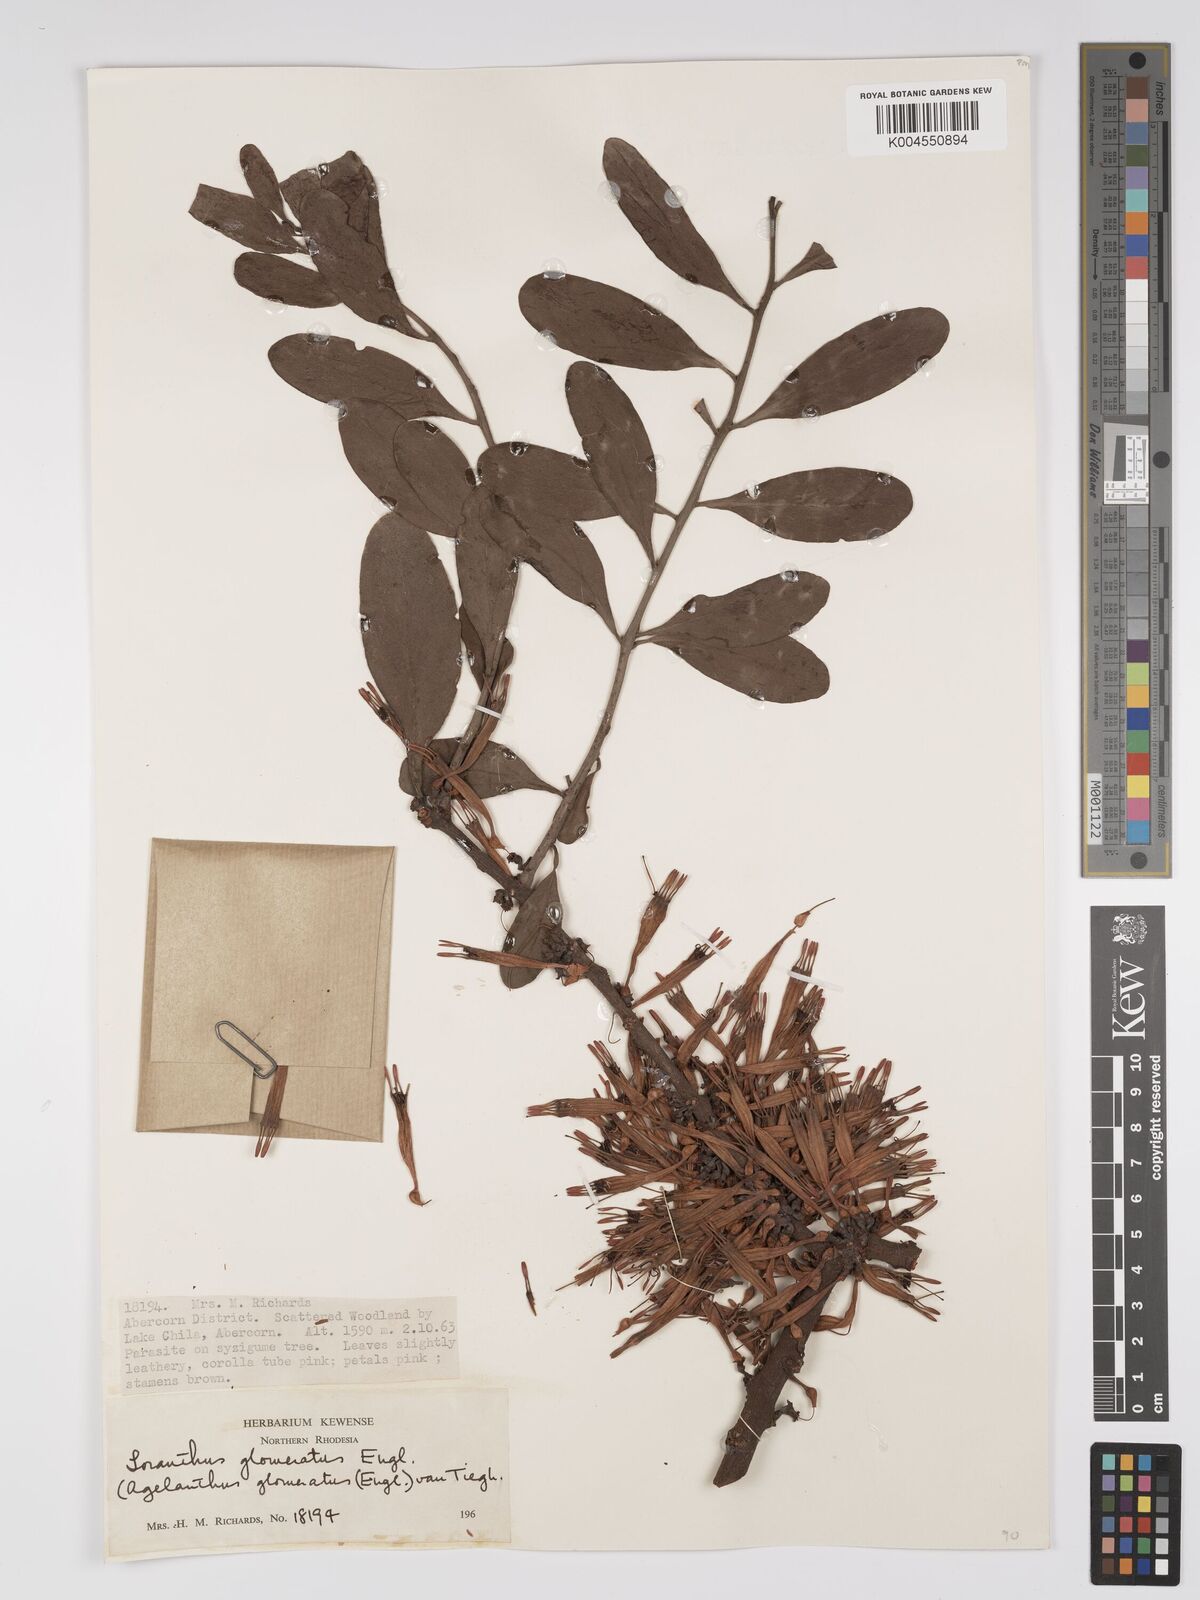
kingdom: Plantae
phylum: Tracheophyta
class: Magnoliopsida
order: Santalales
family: Loranthaceae
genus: Agelanthus
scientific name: Agelanthus zizyphifolius
